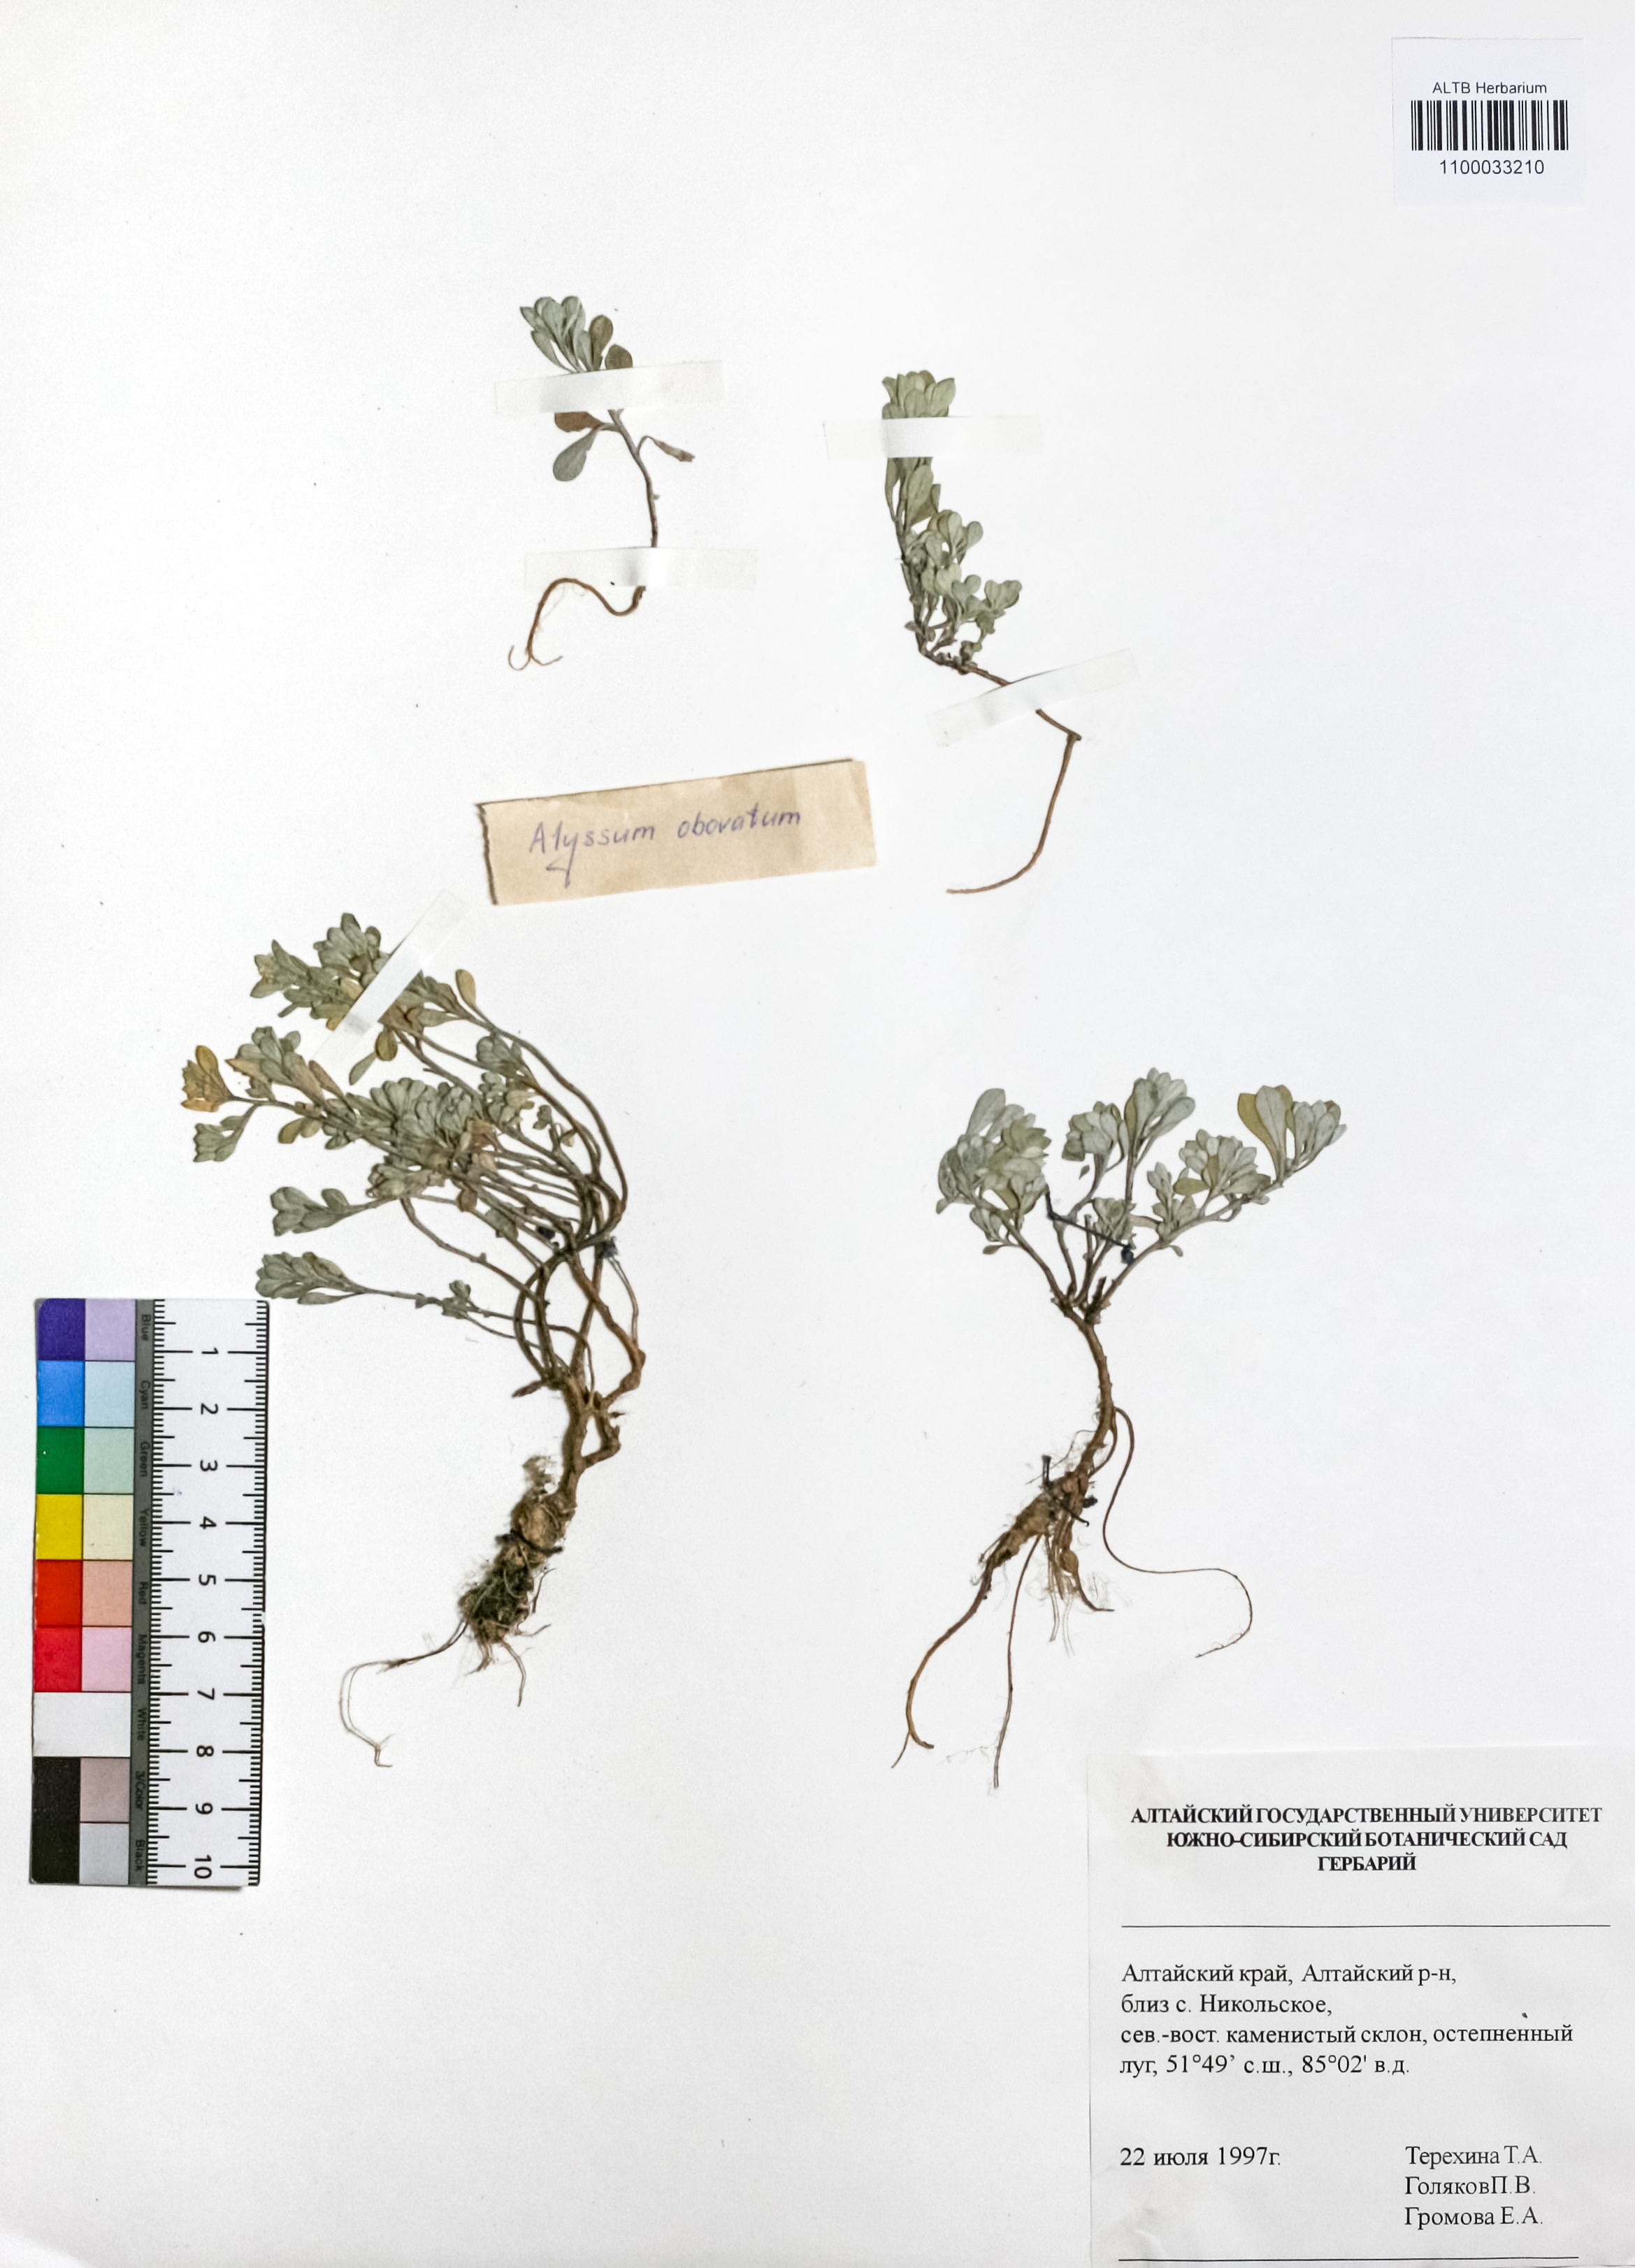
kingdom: Plantae
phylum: Tracheophyta
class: Magnoliopsida
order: Brassicales
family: Brassicaceae
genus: Odontarrhena
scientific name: Odontarrhena obovata
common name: American alyssum
